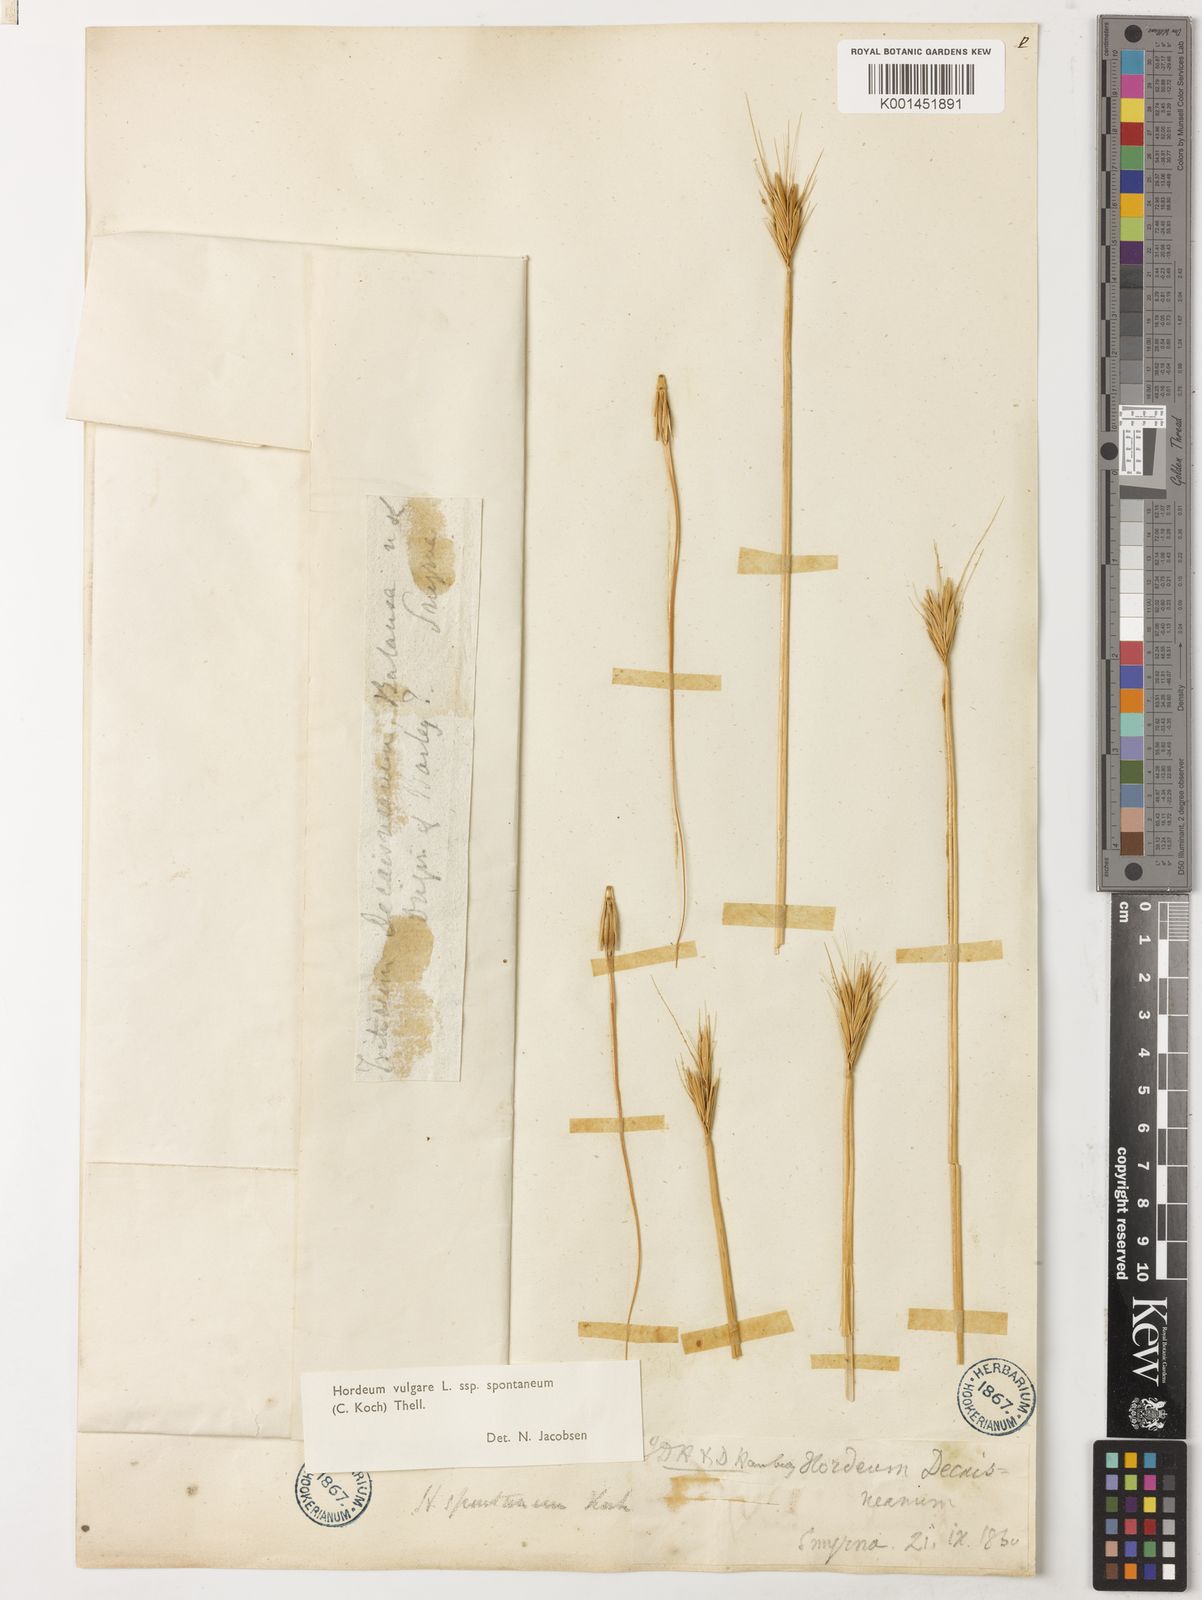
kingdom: Plantae
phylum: Tracheophyta
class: Liliopsida
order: Poales
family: Poaceae
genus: Hordeum
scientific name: Hordeum spontaneum
